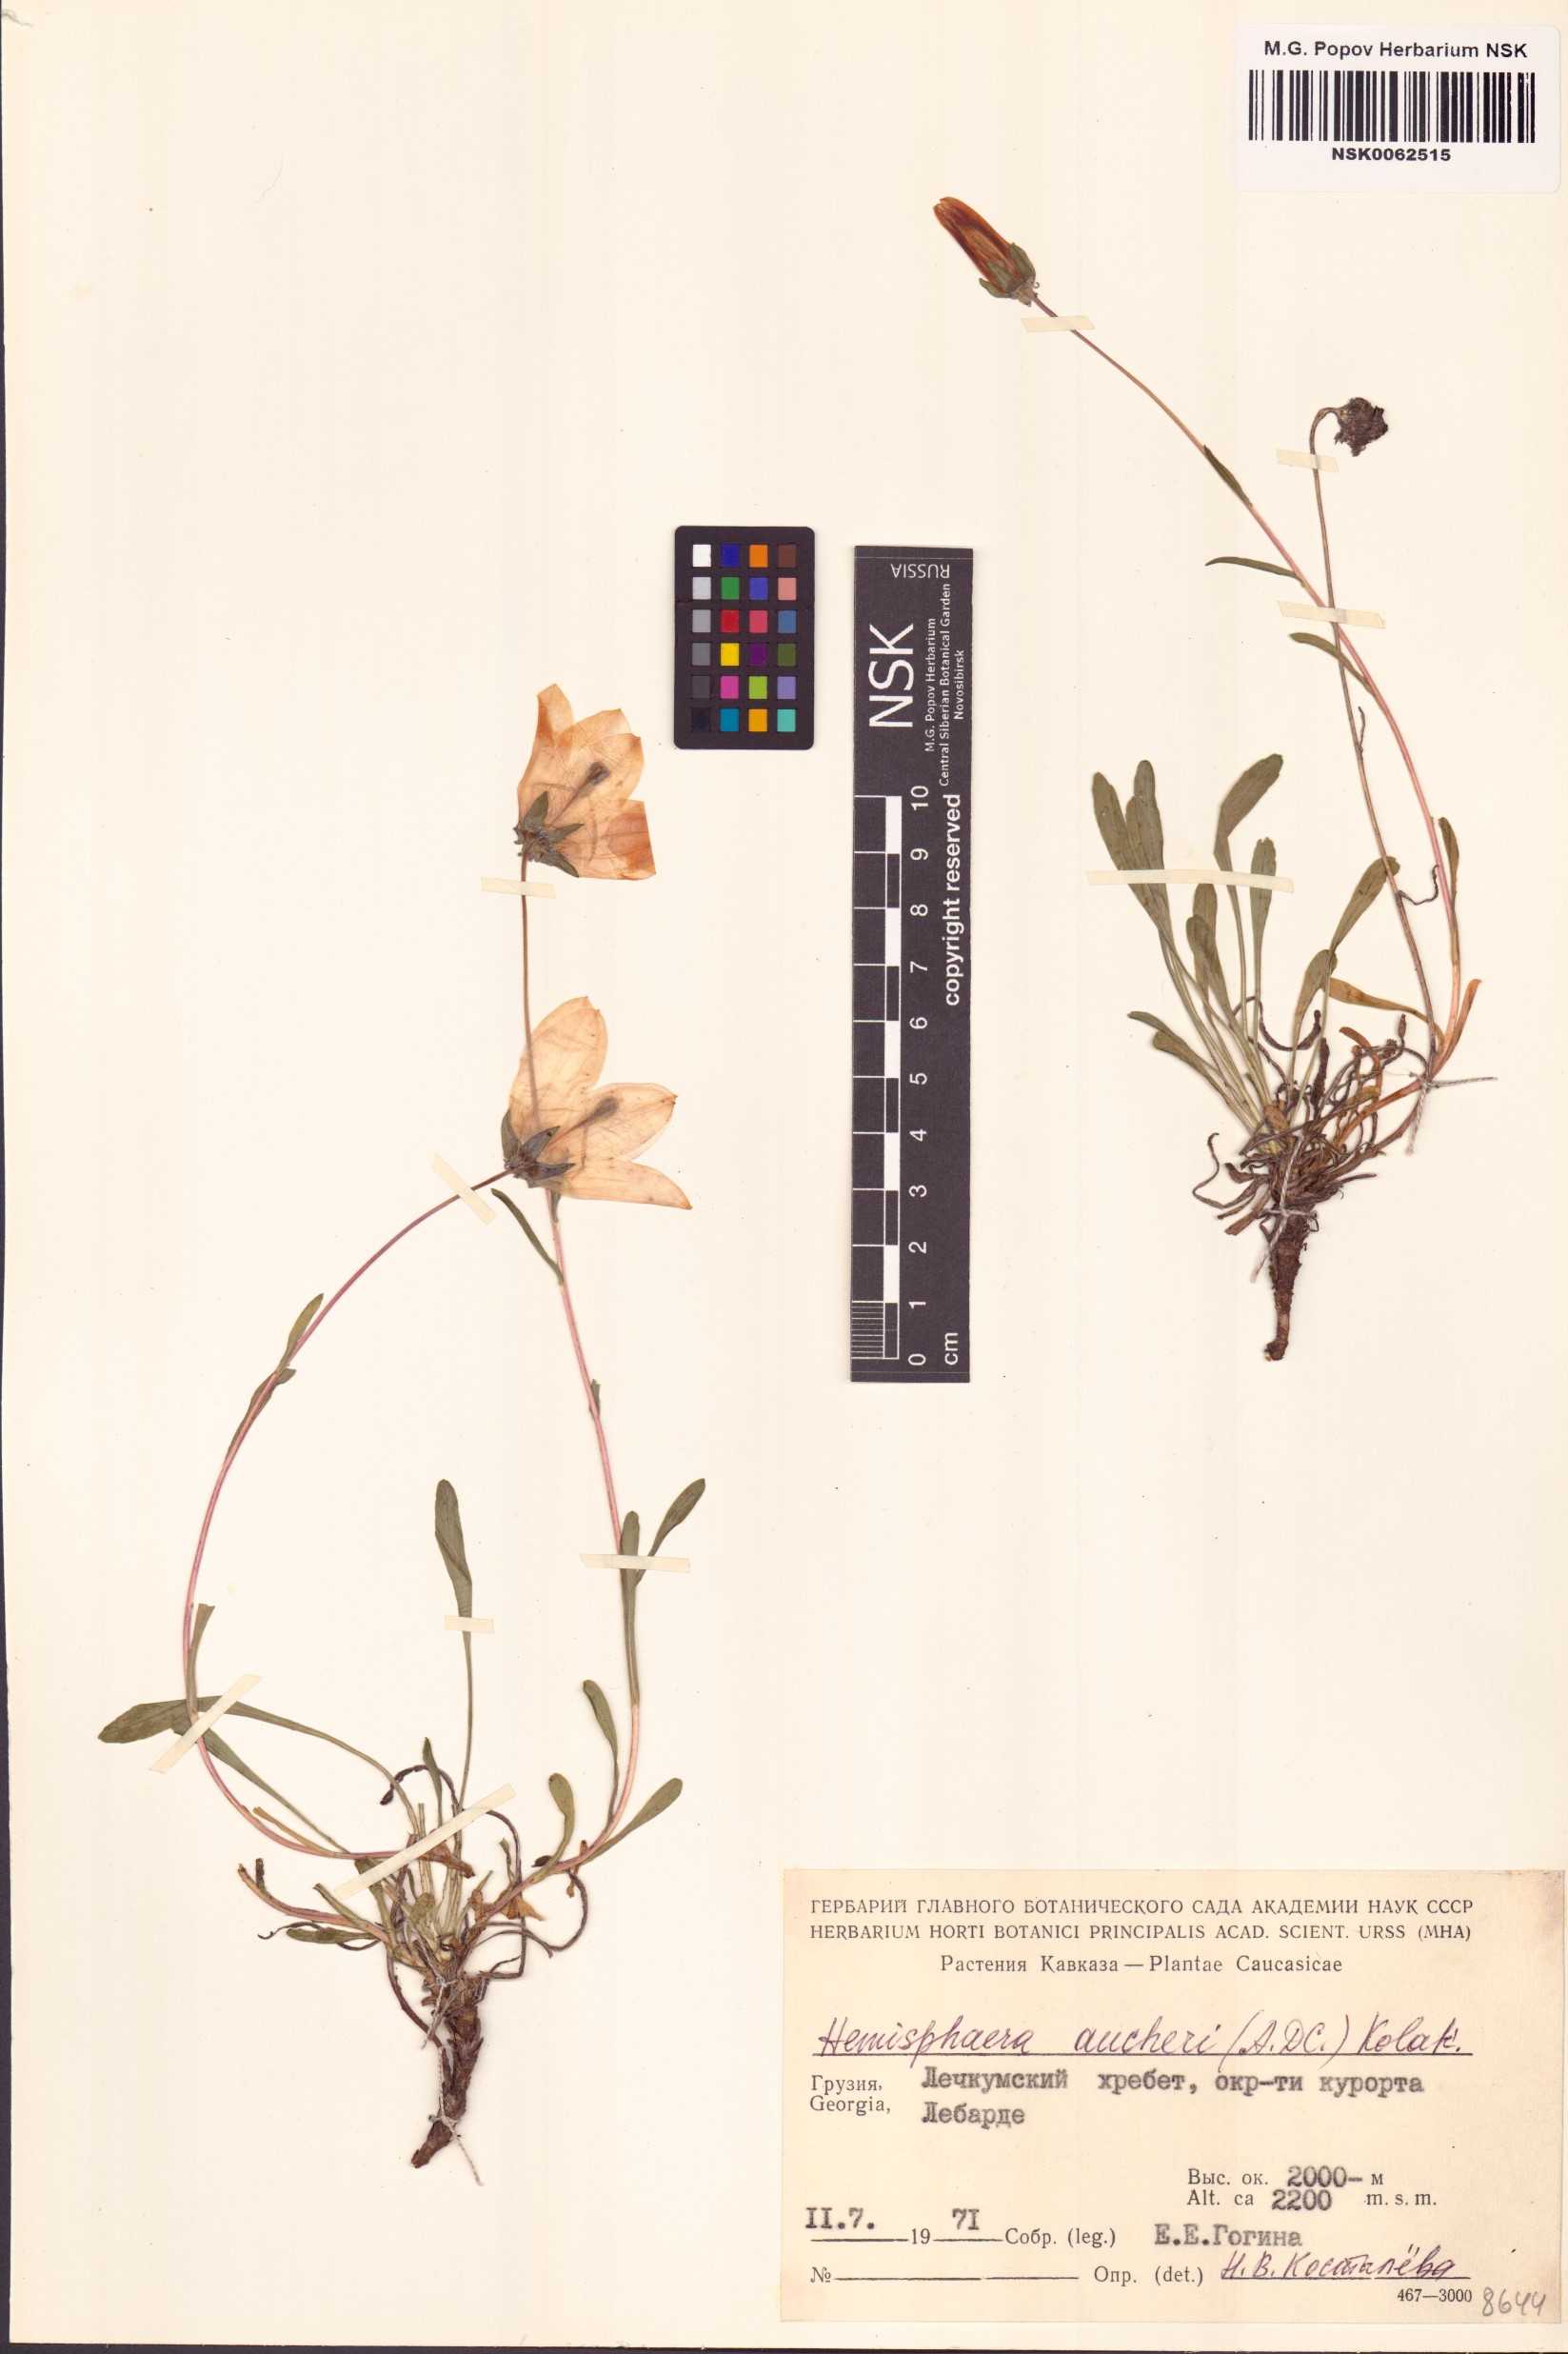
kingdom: Plantae
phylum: Tracheophyta
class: Magnoliopsida
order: Asterales
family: Campanulaceae
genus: Campanula
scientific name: Campanula saxifraga
